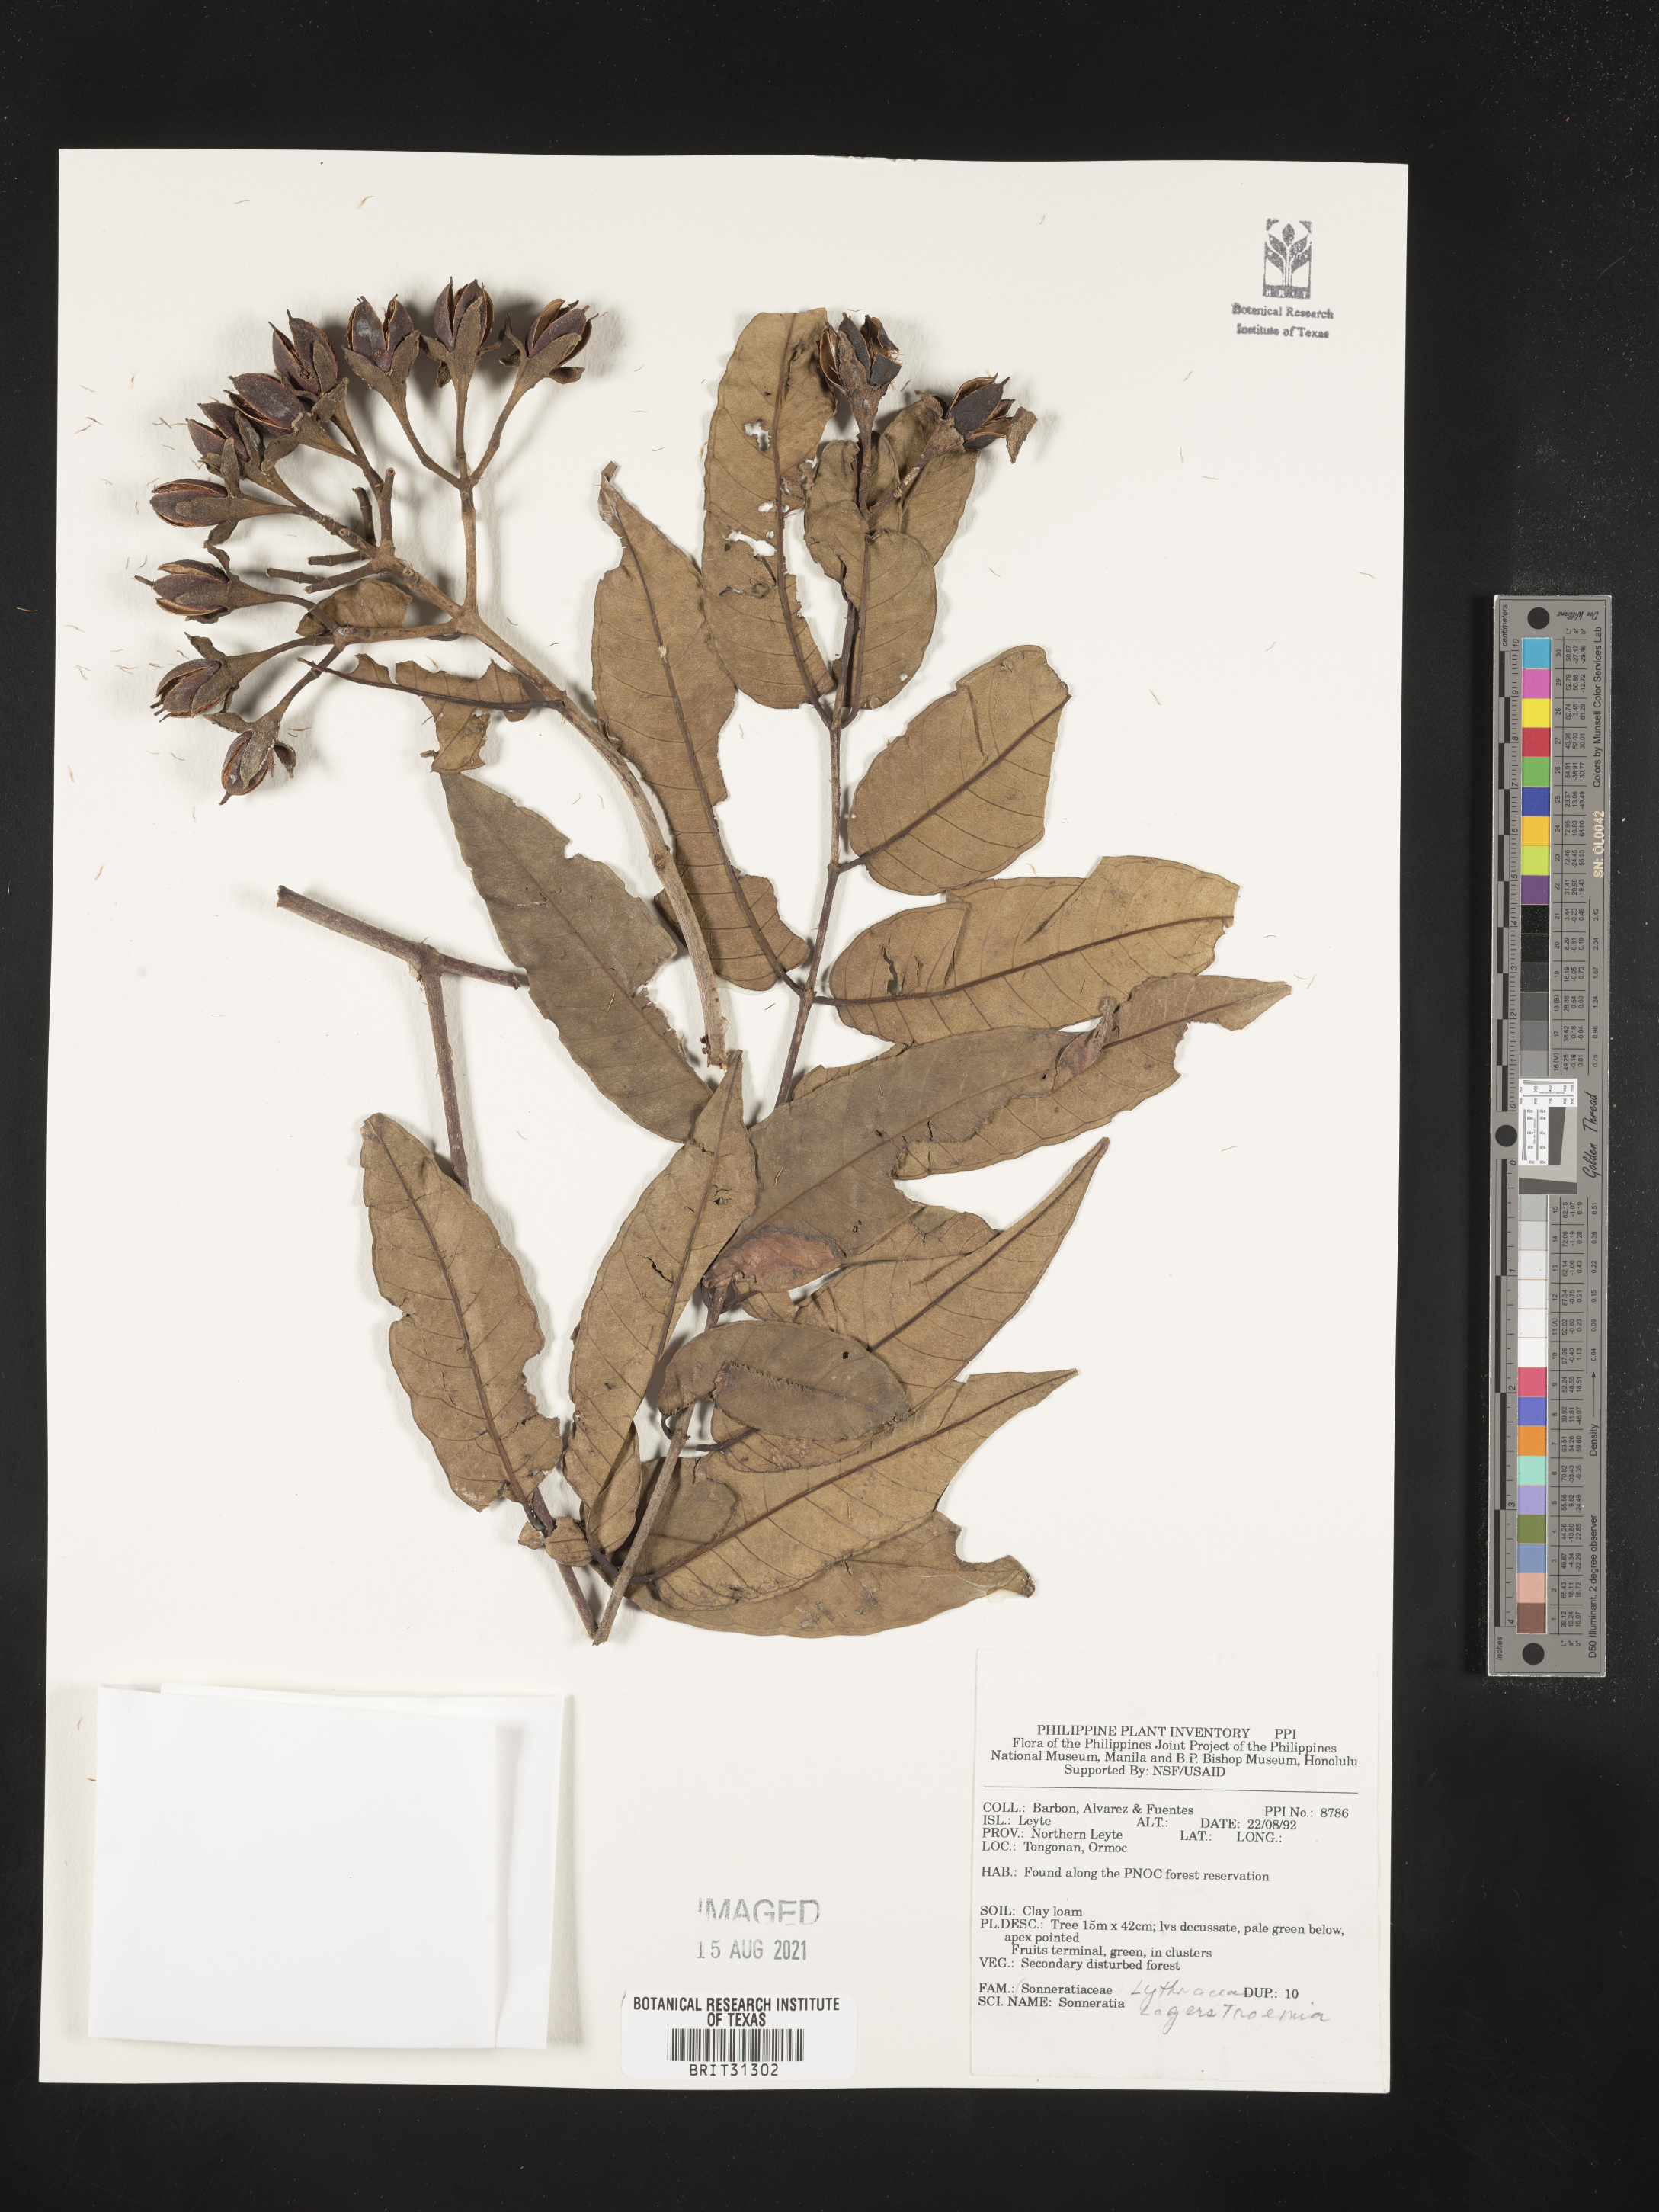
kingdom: Plantae
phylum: Tracheophyta
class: Magnoliopsida
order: Myrtales
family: Lythraceae
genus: Lagerstroemia
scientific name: Lagerstroemia
